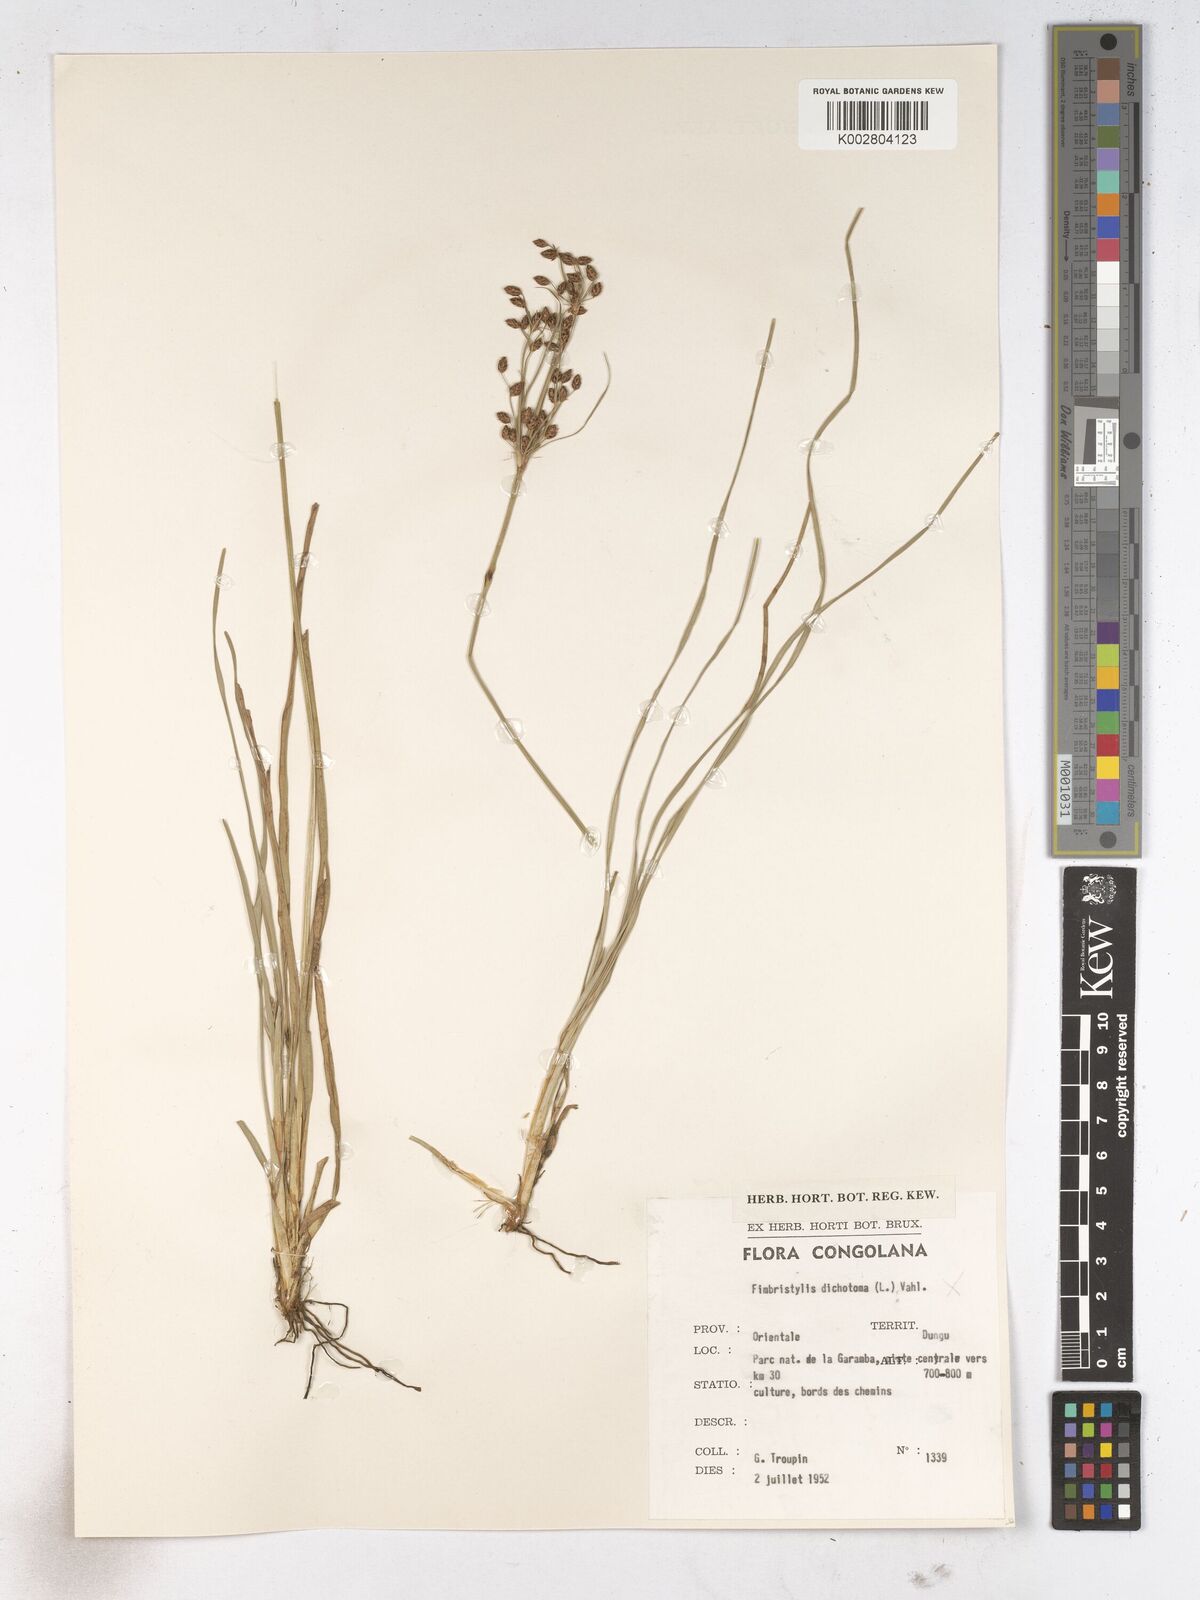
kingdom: Plantae
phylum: Tracheophyta
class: Liliopsida
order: Poales
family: Cyperaceae
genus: Fimbristylis
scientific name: Fimbristylis dichotoma
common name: Forked fimbry
